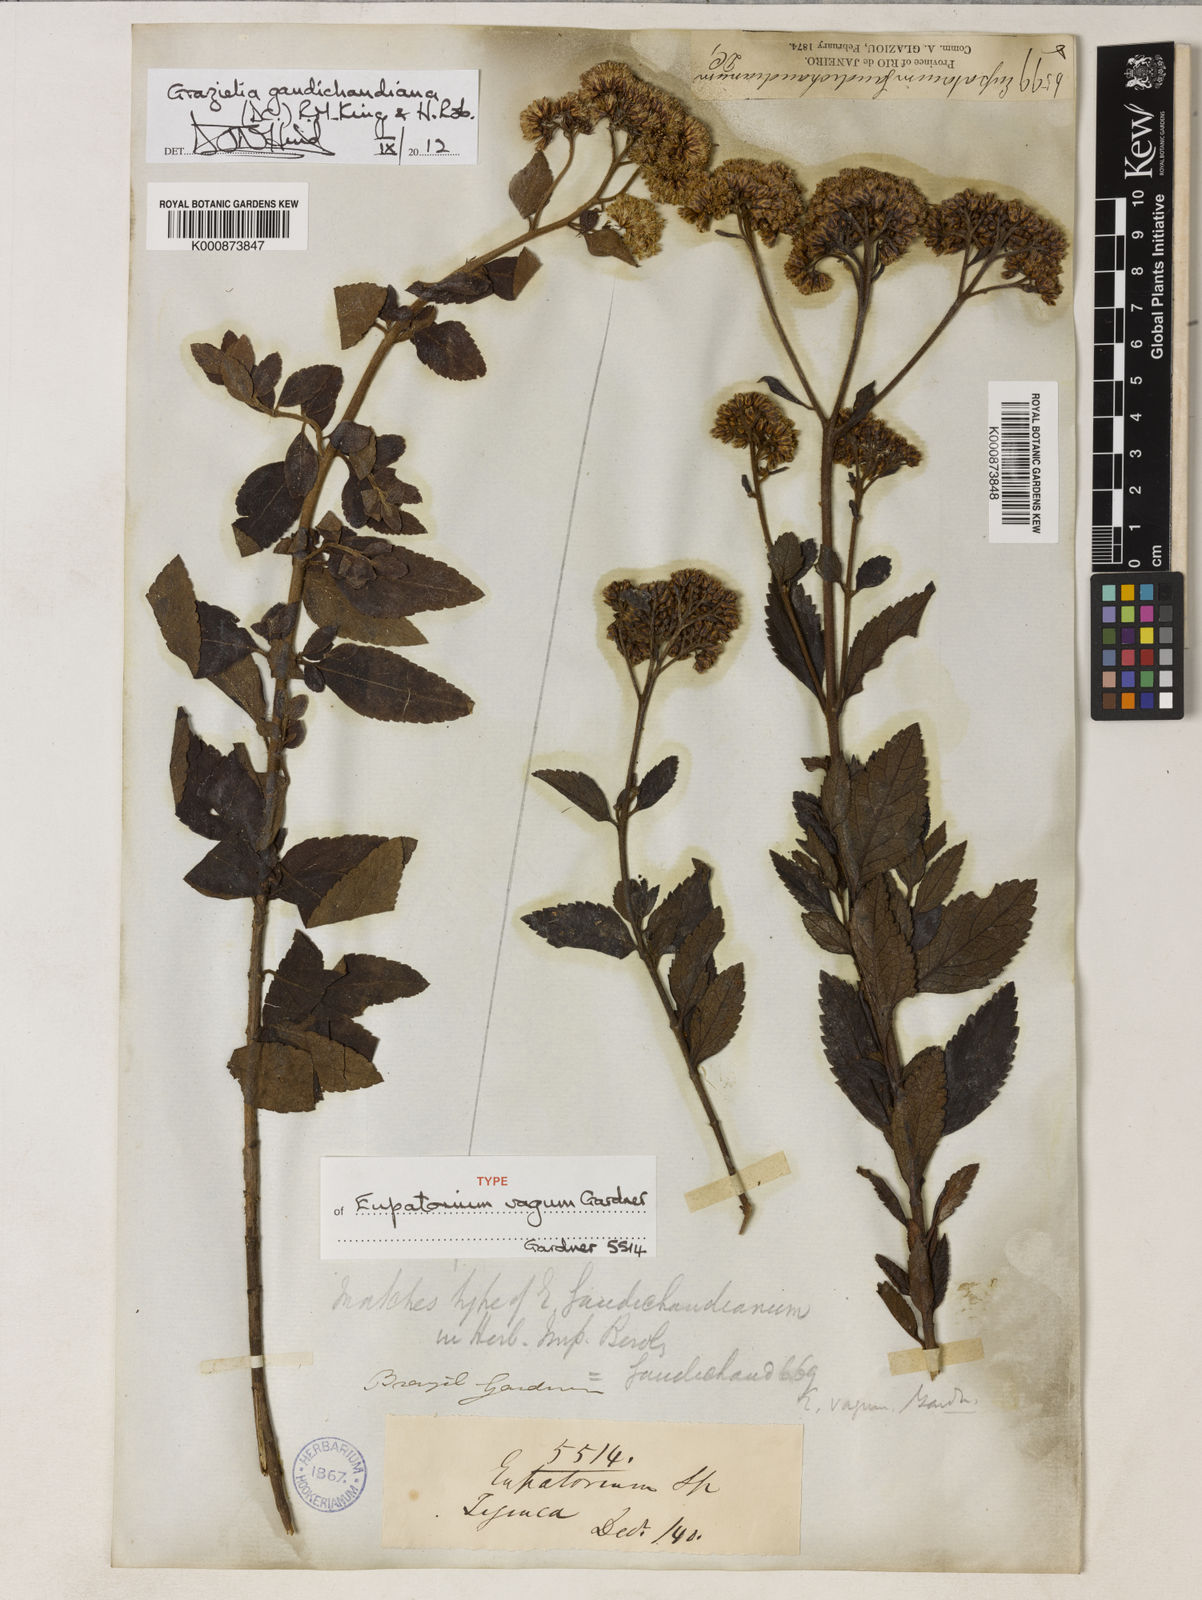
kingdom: Plantae
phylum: Tracheophyta
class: Magnoliopsida
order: Asterales
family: Asteraceae
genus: Grazielia
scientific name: Grazielia gaudichaudeana
